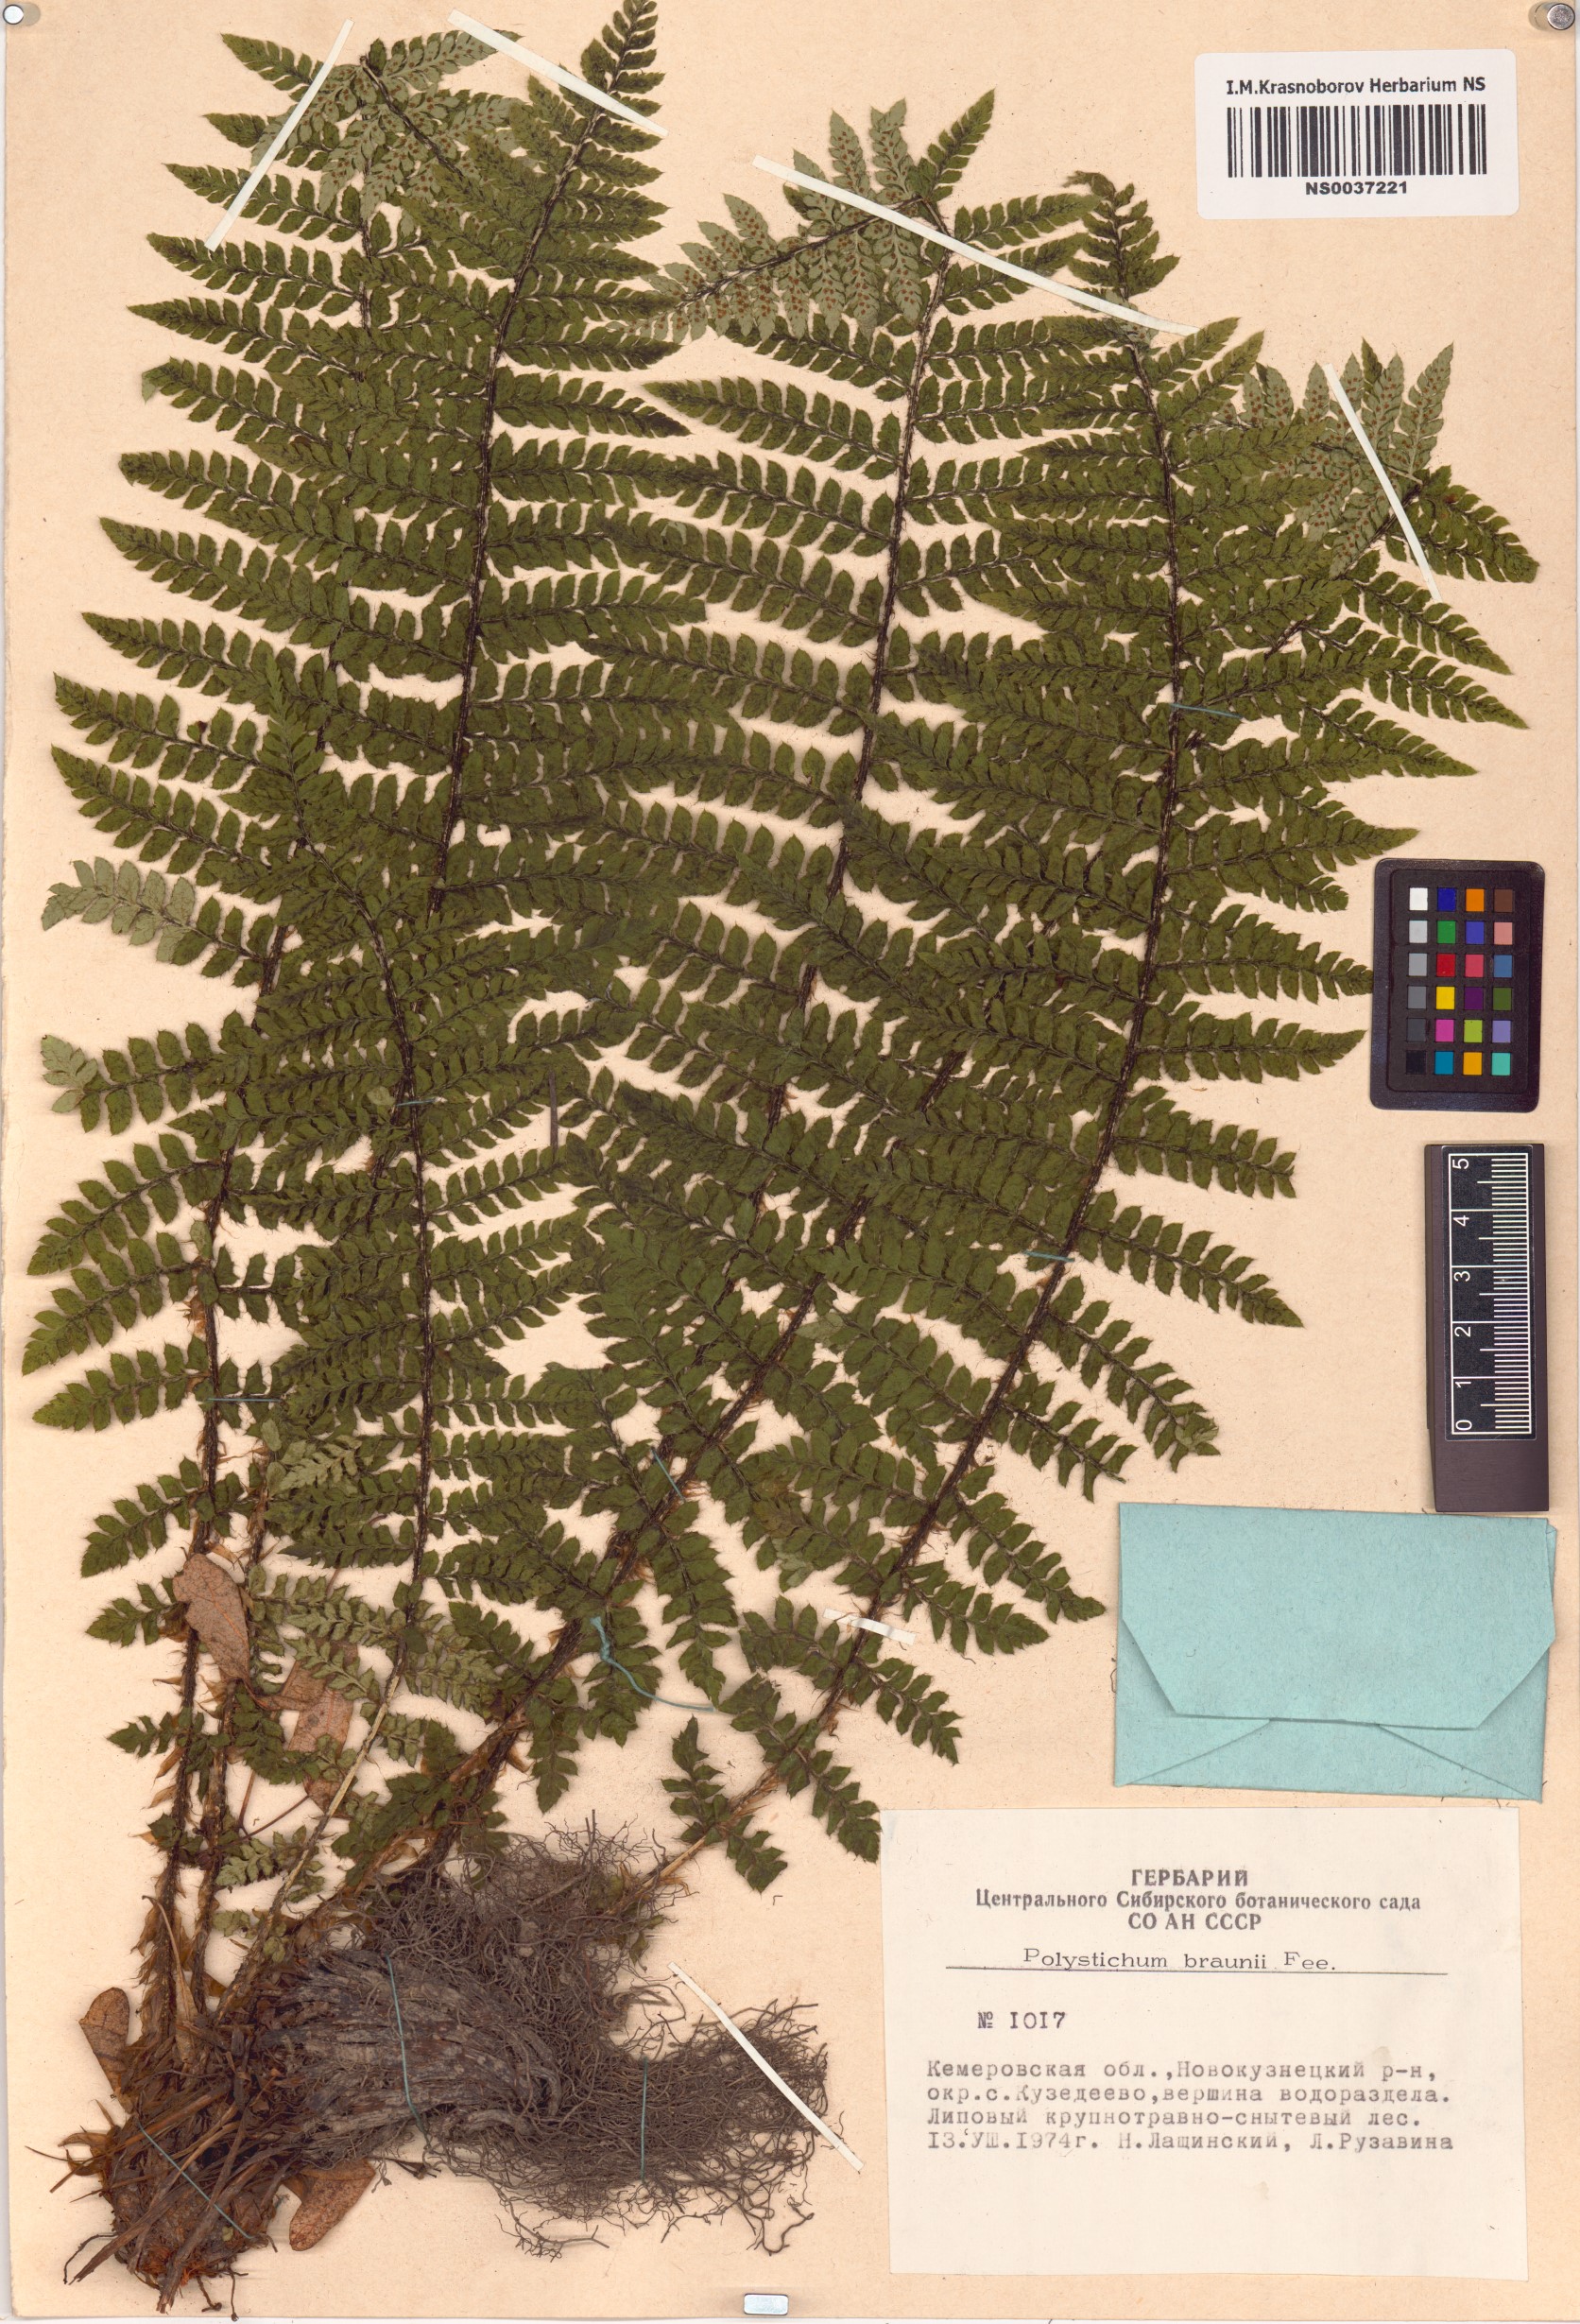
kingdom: Plantae
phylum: Tracheophyta
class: Polypodiopsida
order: Polypodiales
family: Dryopteridaceae
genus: Polystichum
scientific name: Polystichum braunii
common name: Braun's holly fern
